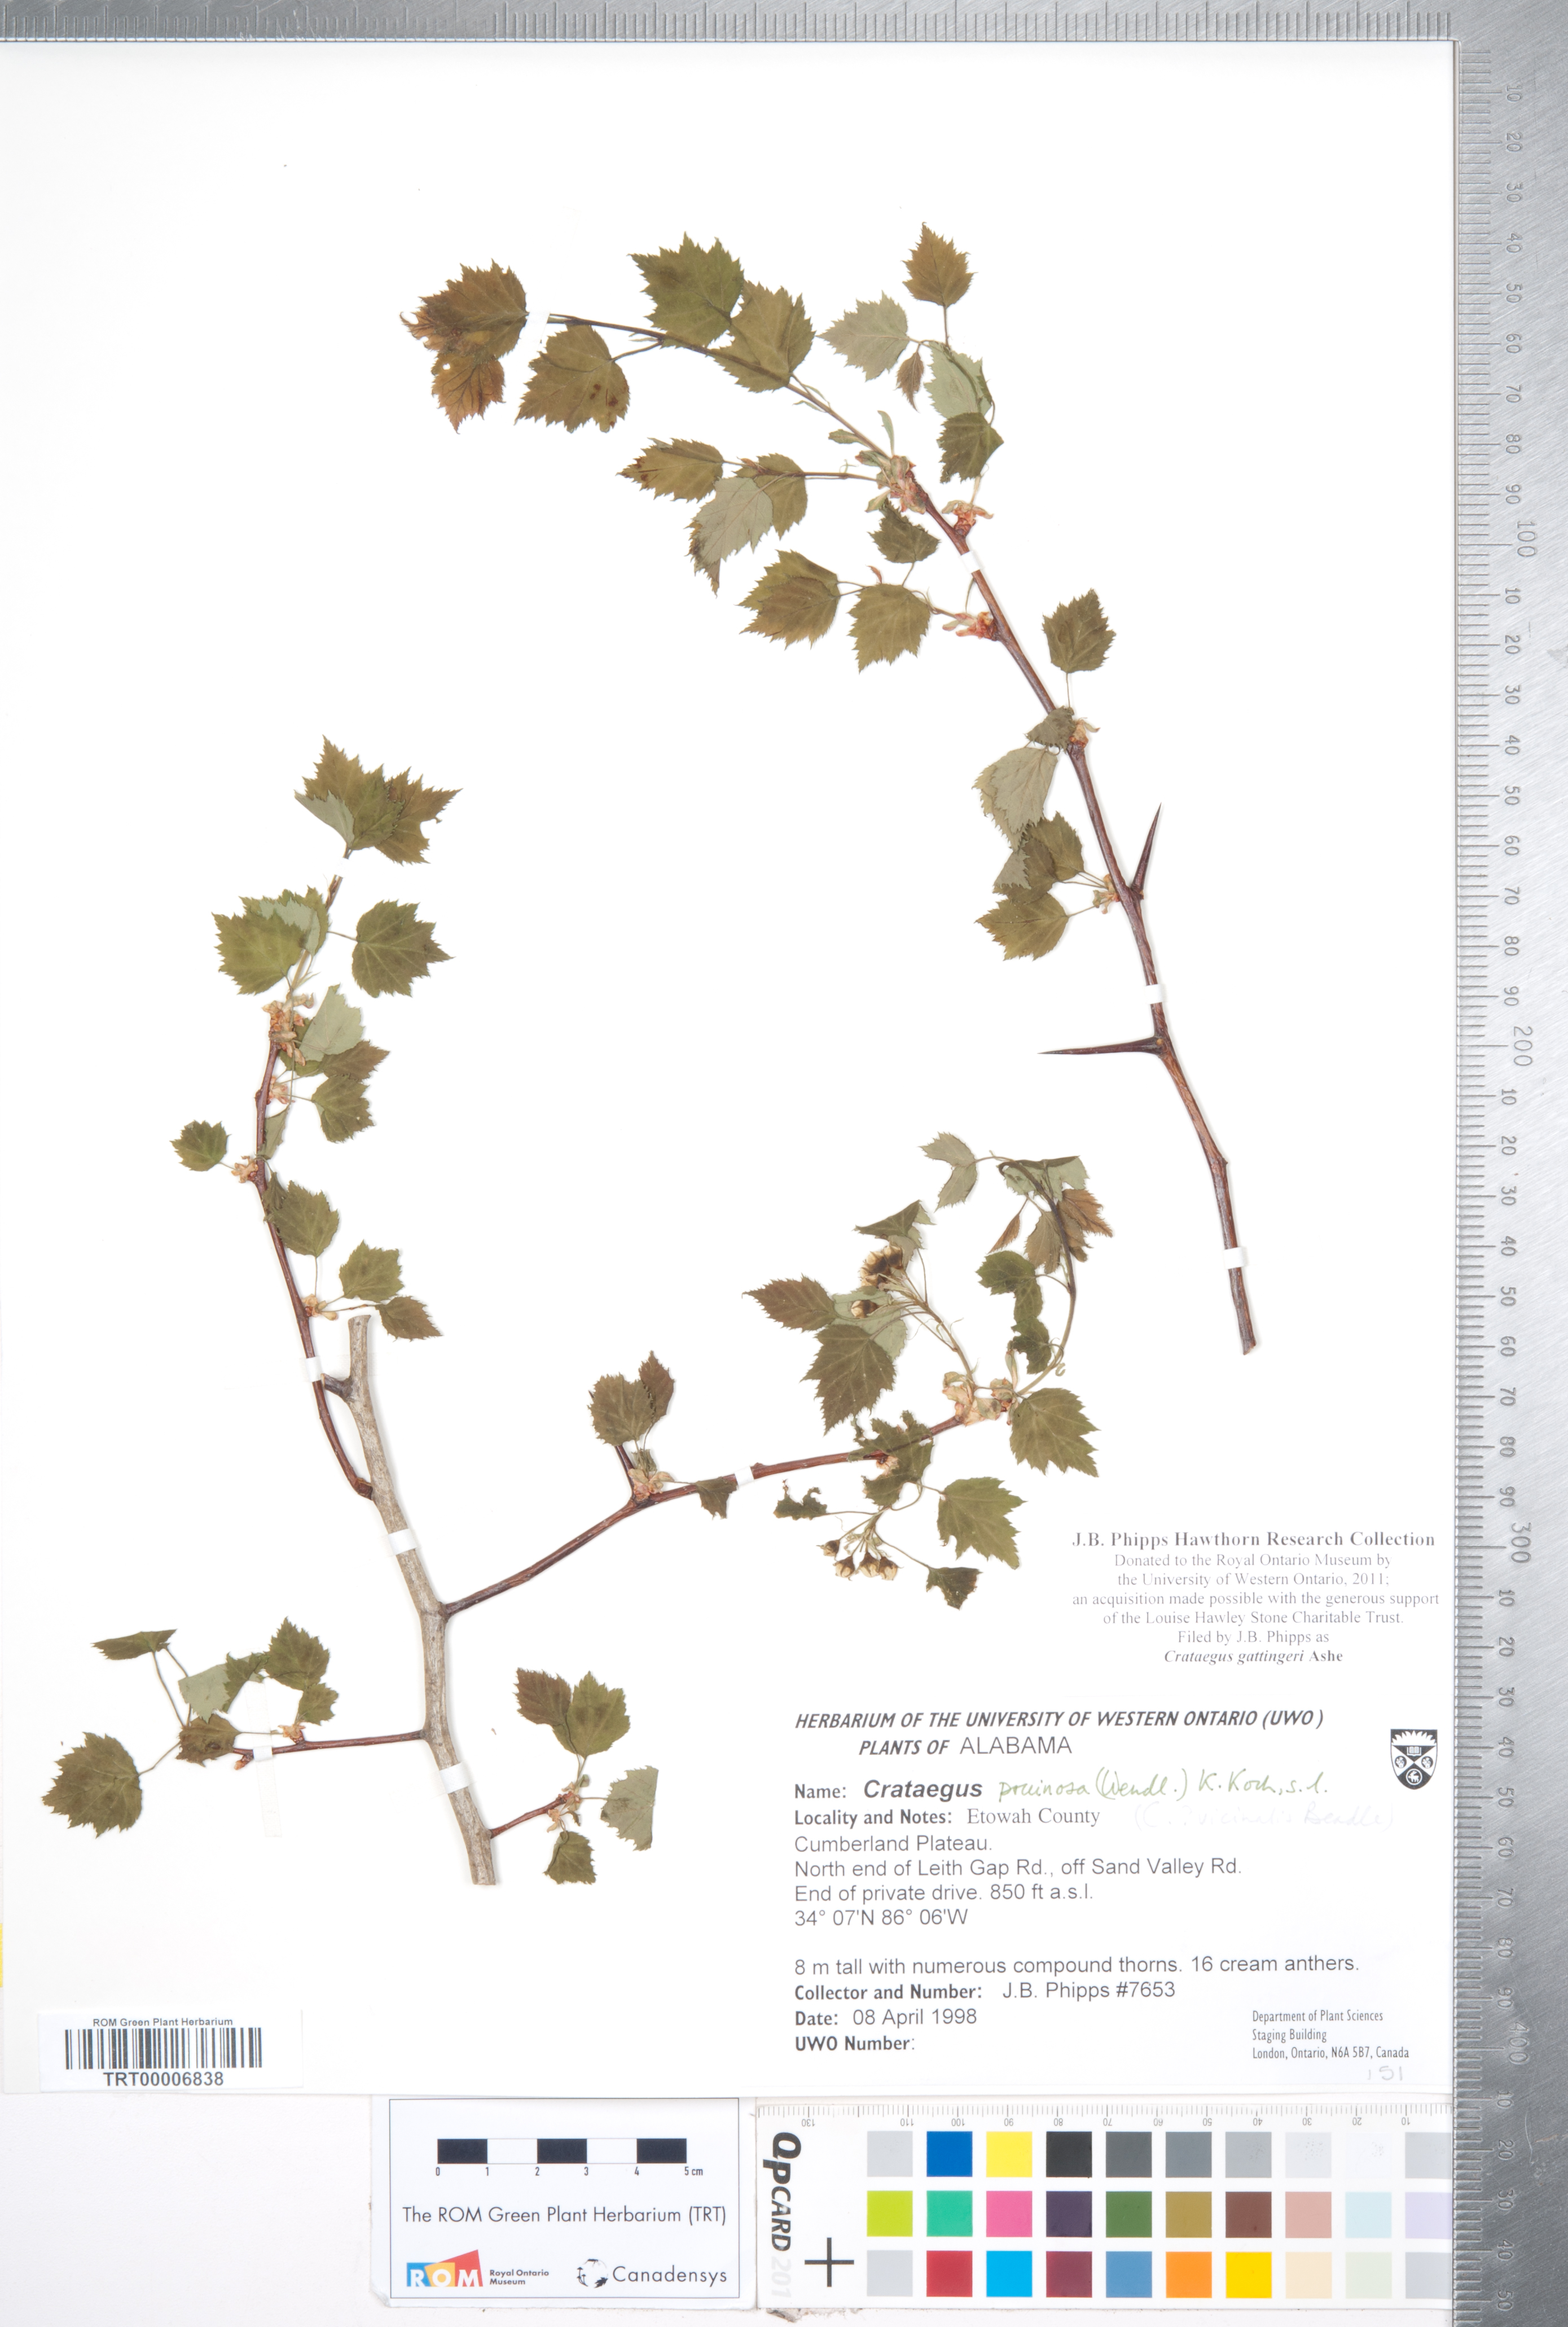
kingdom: Plantae
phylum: Tracheophyta
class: Magnoliopsida
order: Rosales
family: Rosaceae
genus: Crataegus
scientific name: Crataegus gattingeri
